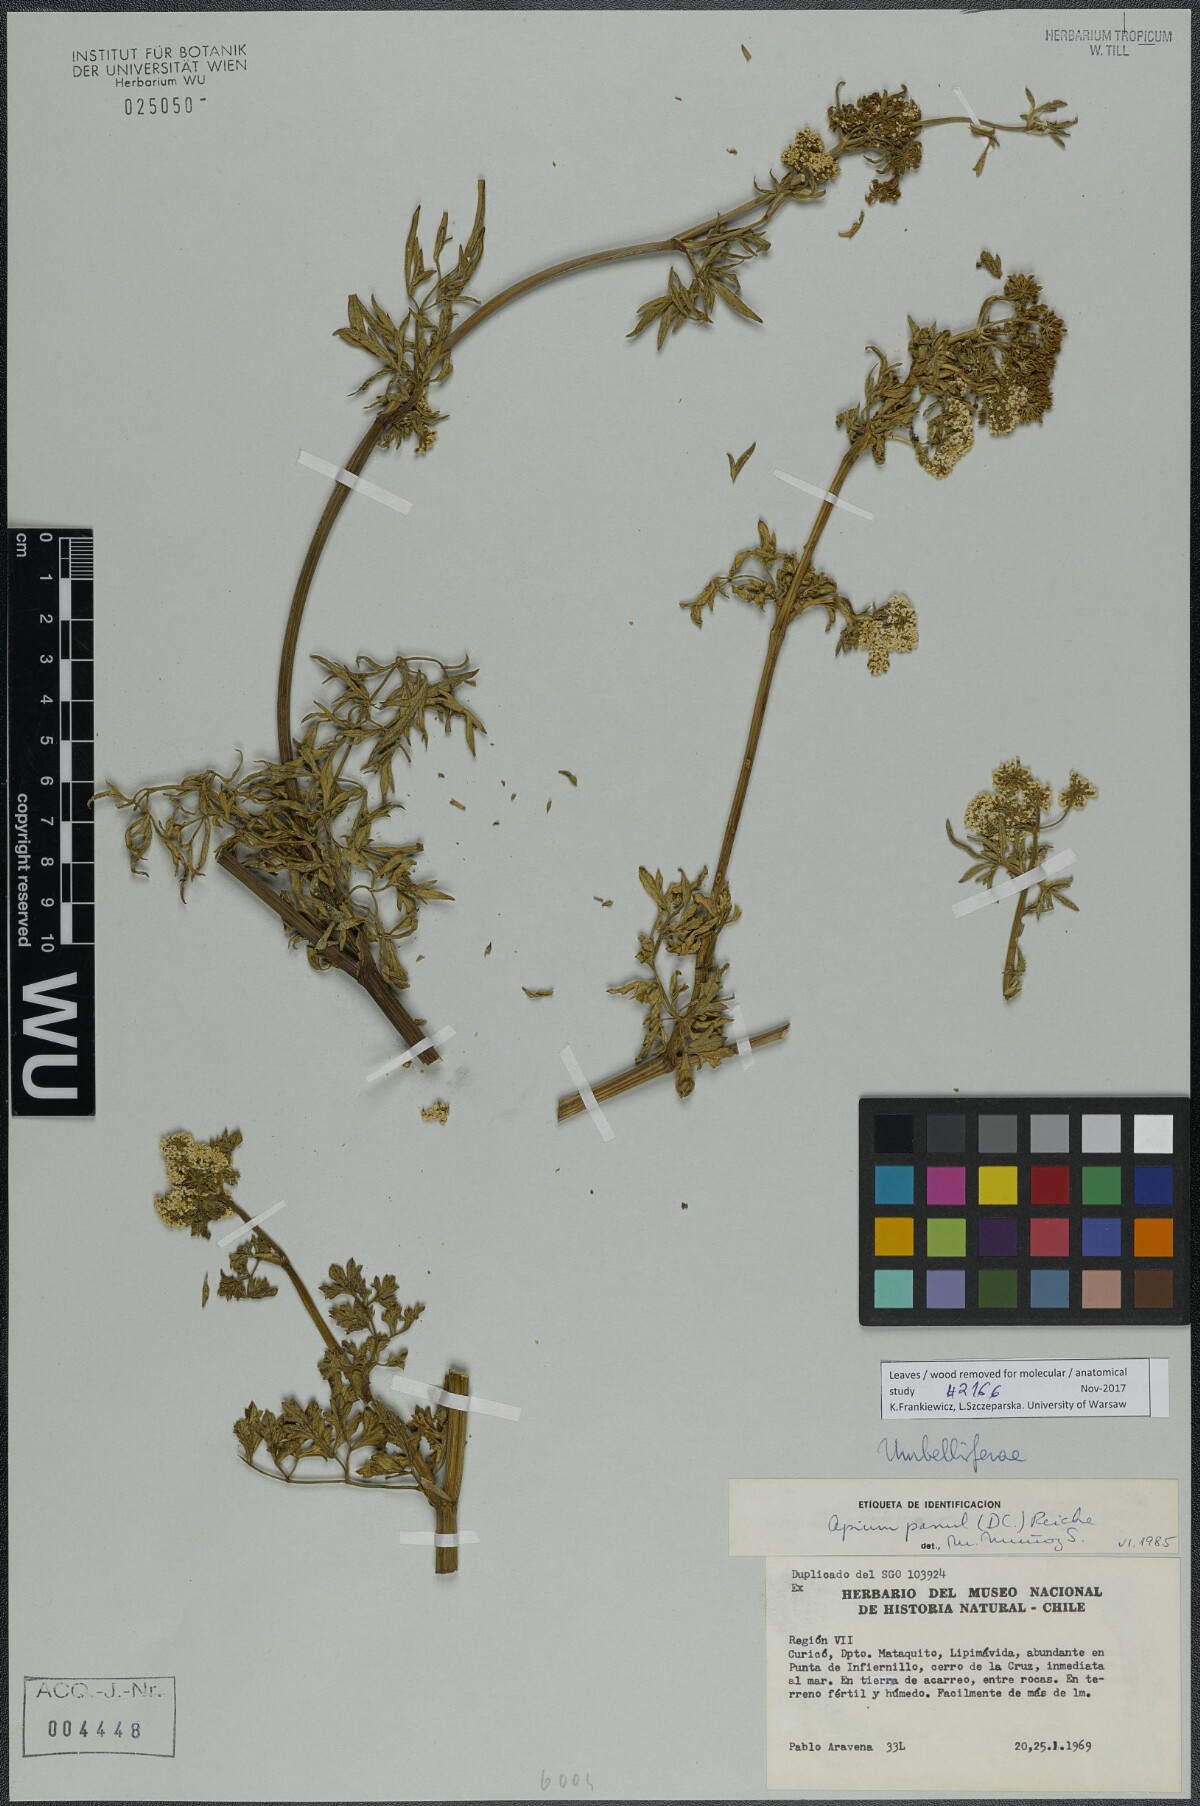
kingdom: Plantae
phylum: Tracheophyta
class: Magnoliopsida
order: Apiales
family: Apiaceae
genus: Apium
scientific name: Apium panul
